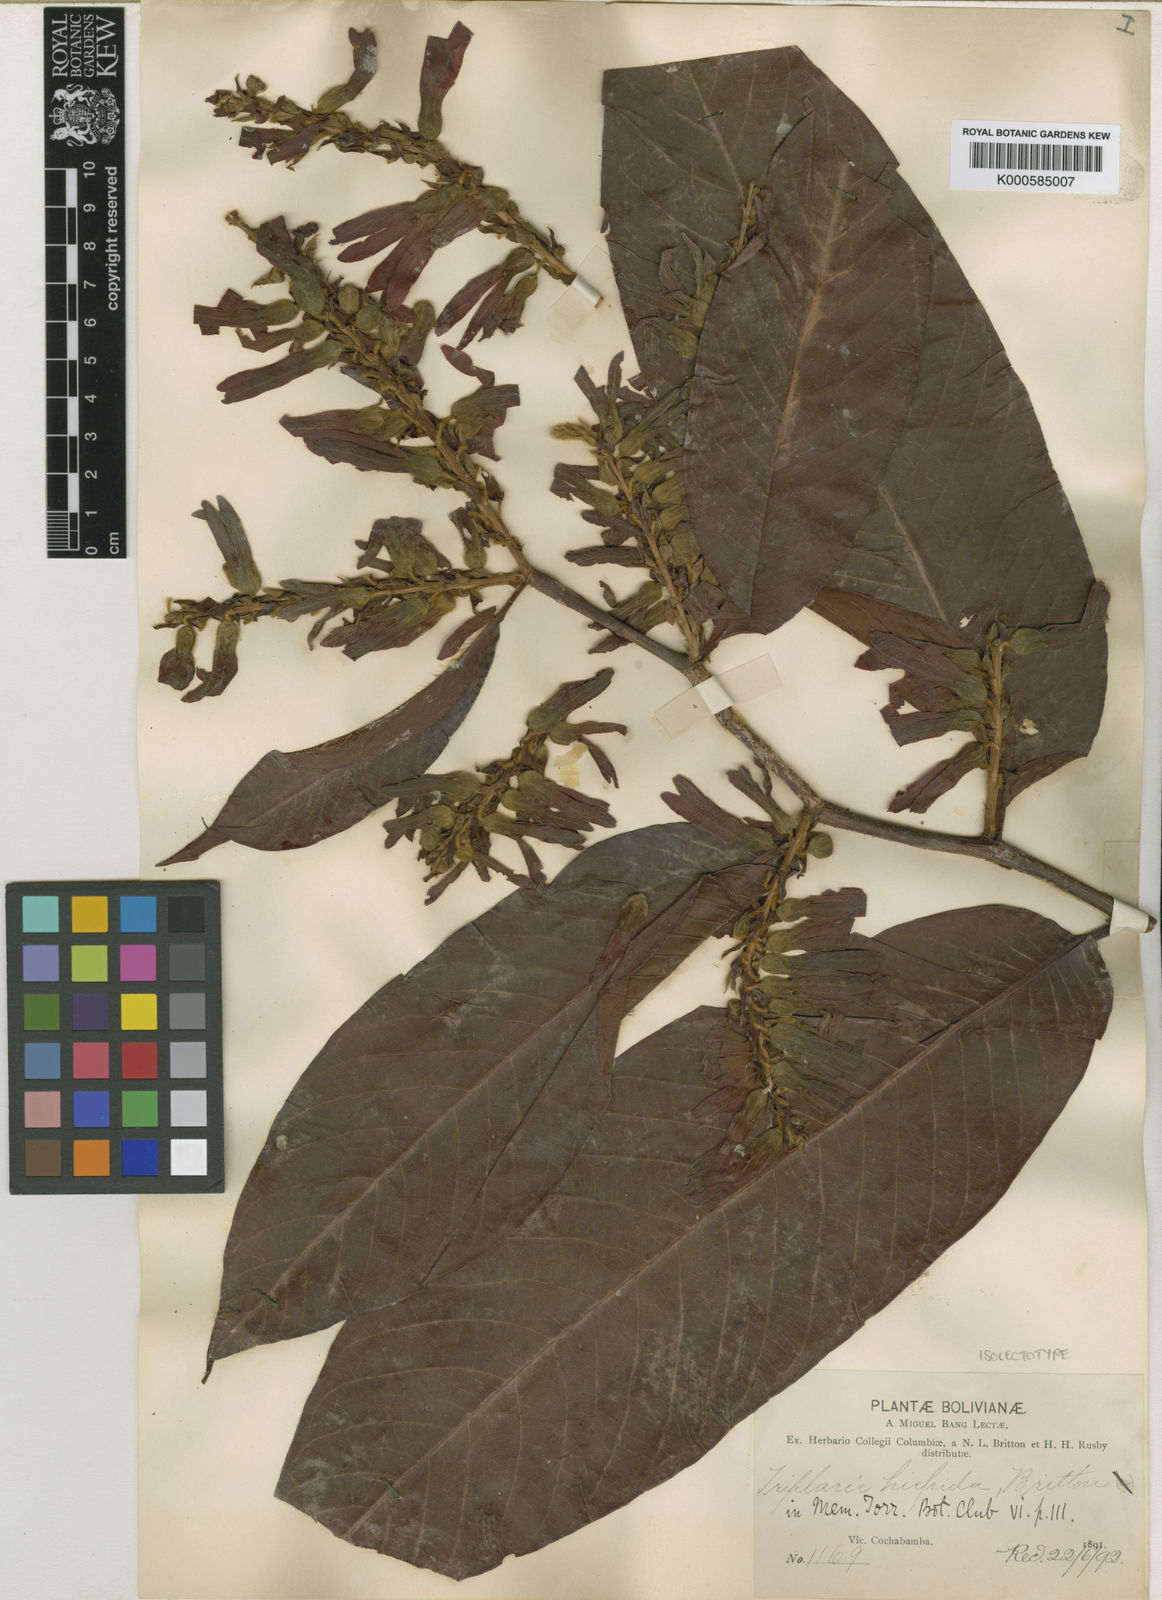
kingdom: Plantae
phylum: Tracheophyta
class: Magnoliopsida
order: Caryophyllales
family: Polygonaceae
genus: Triplaris
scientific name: Triplaris poeppigiana
